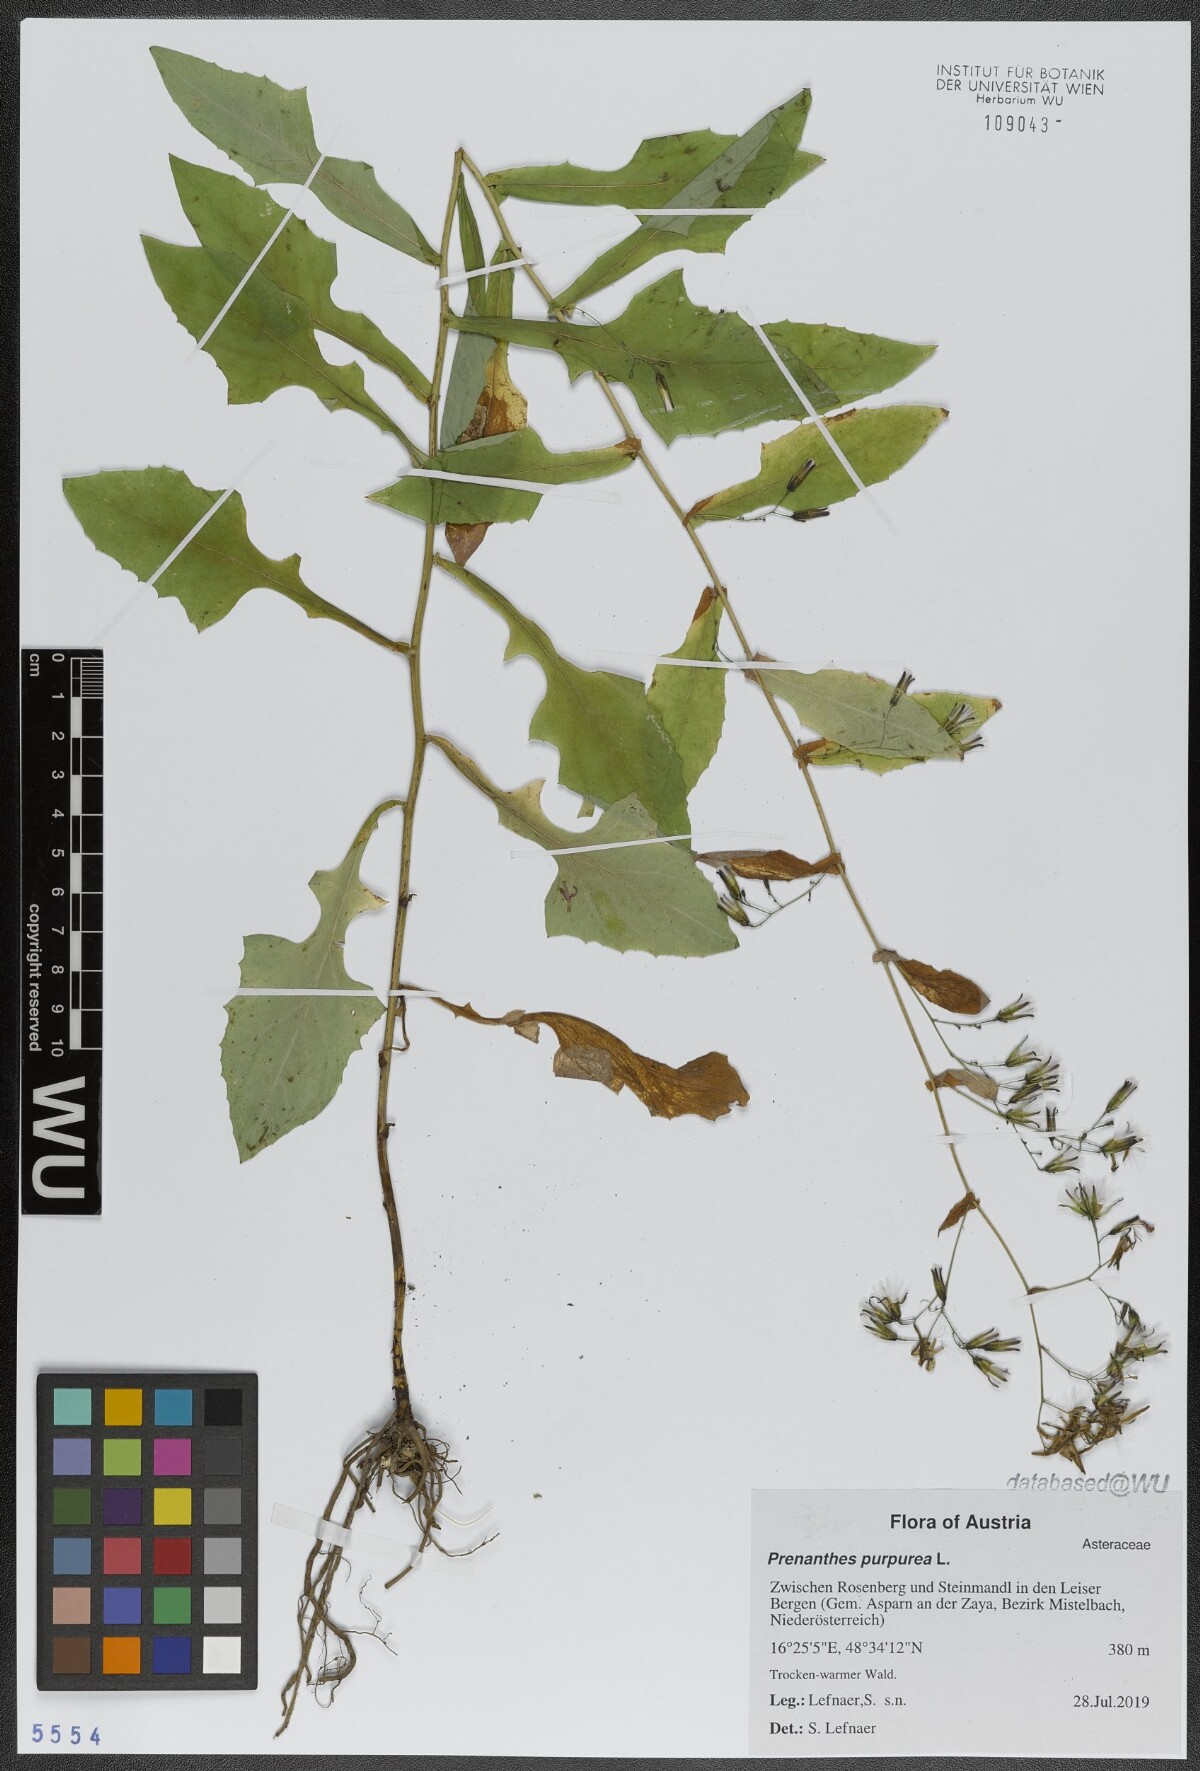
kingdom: Plantae
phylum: Tracheophyta
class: Magnoliopsida
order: Asterales
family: Asteraceae
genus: Prenanthes
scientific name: Prenanthes purpurea
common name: Purple lettuce
